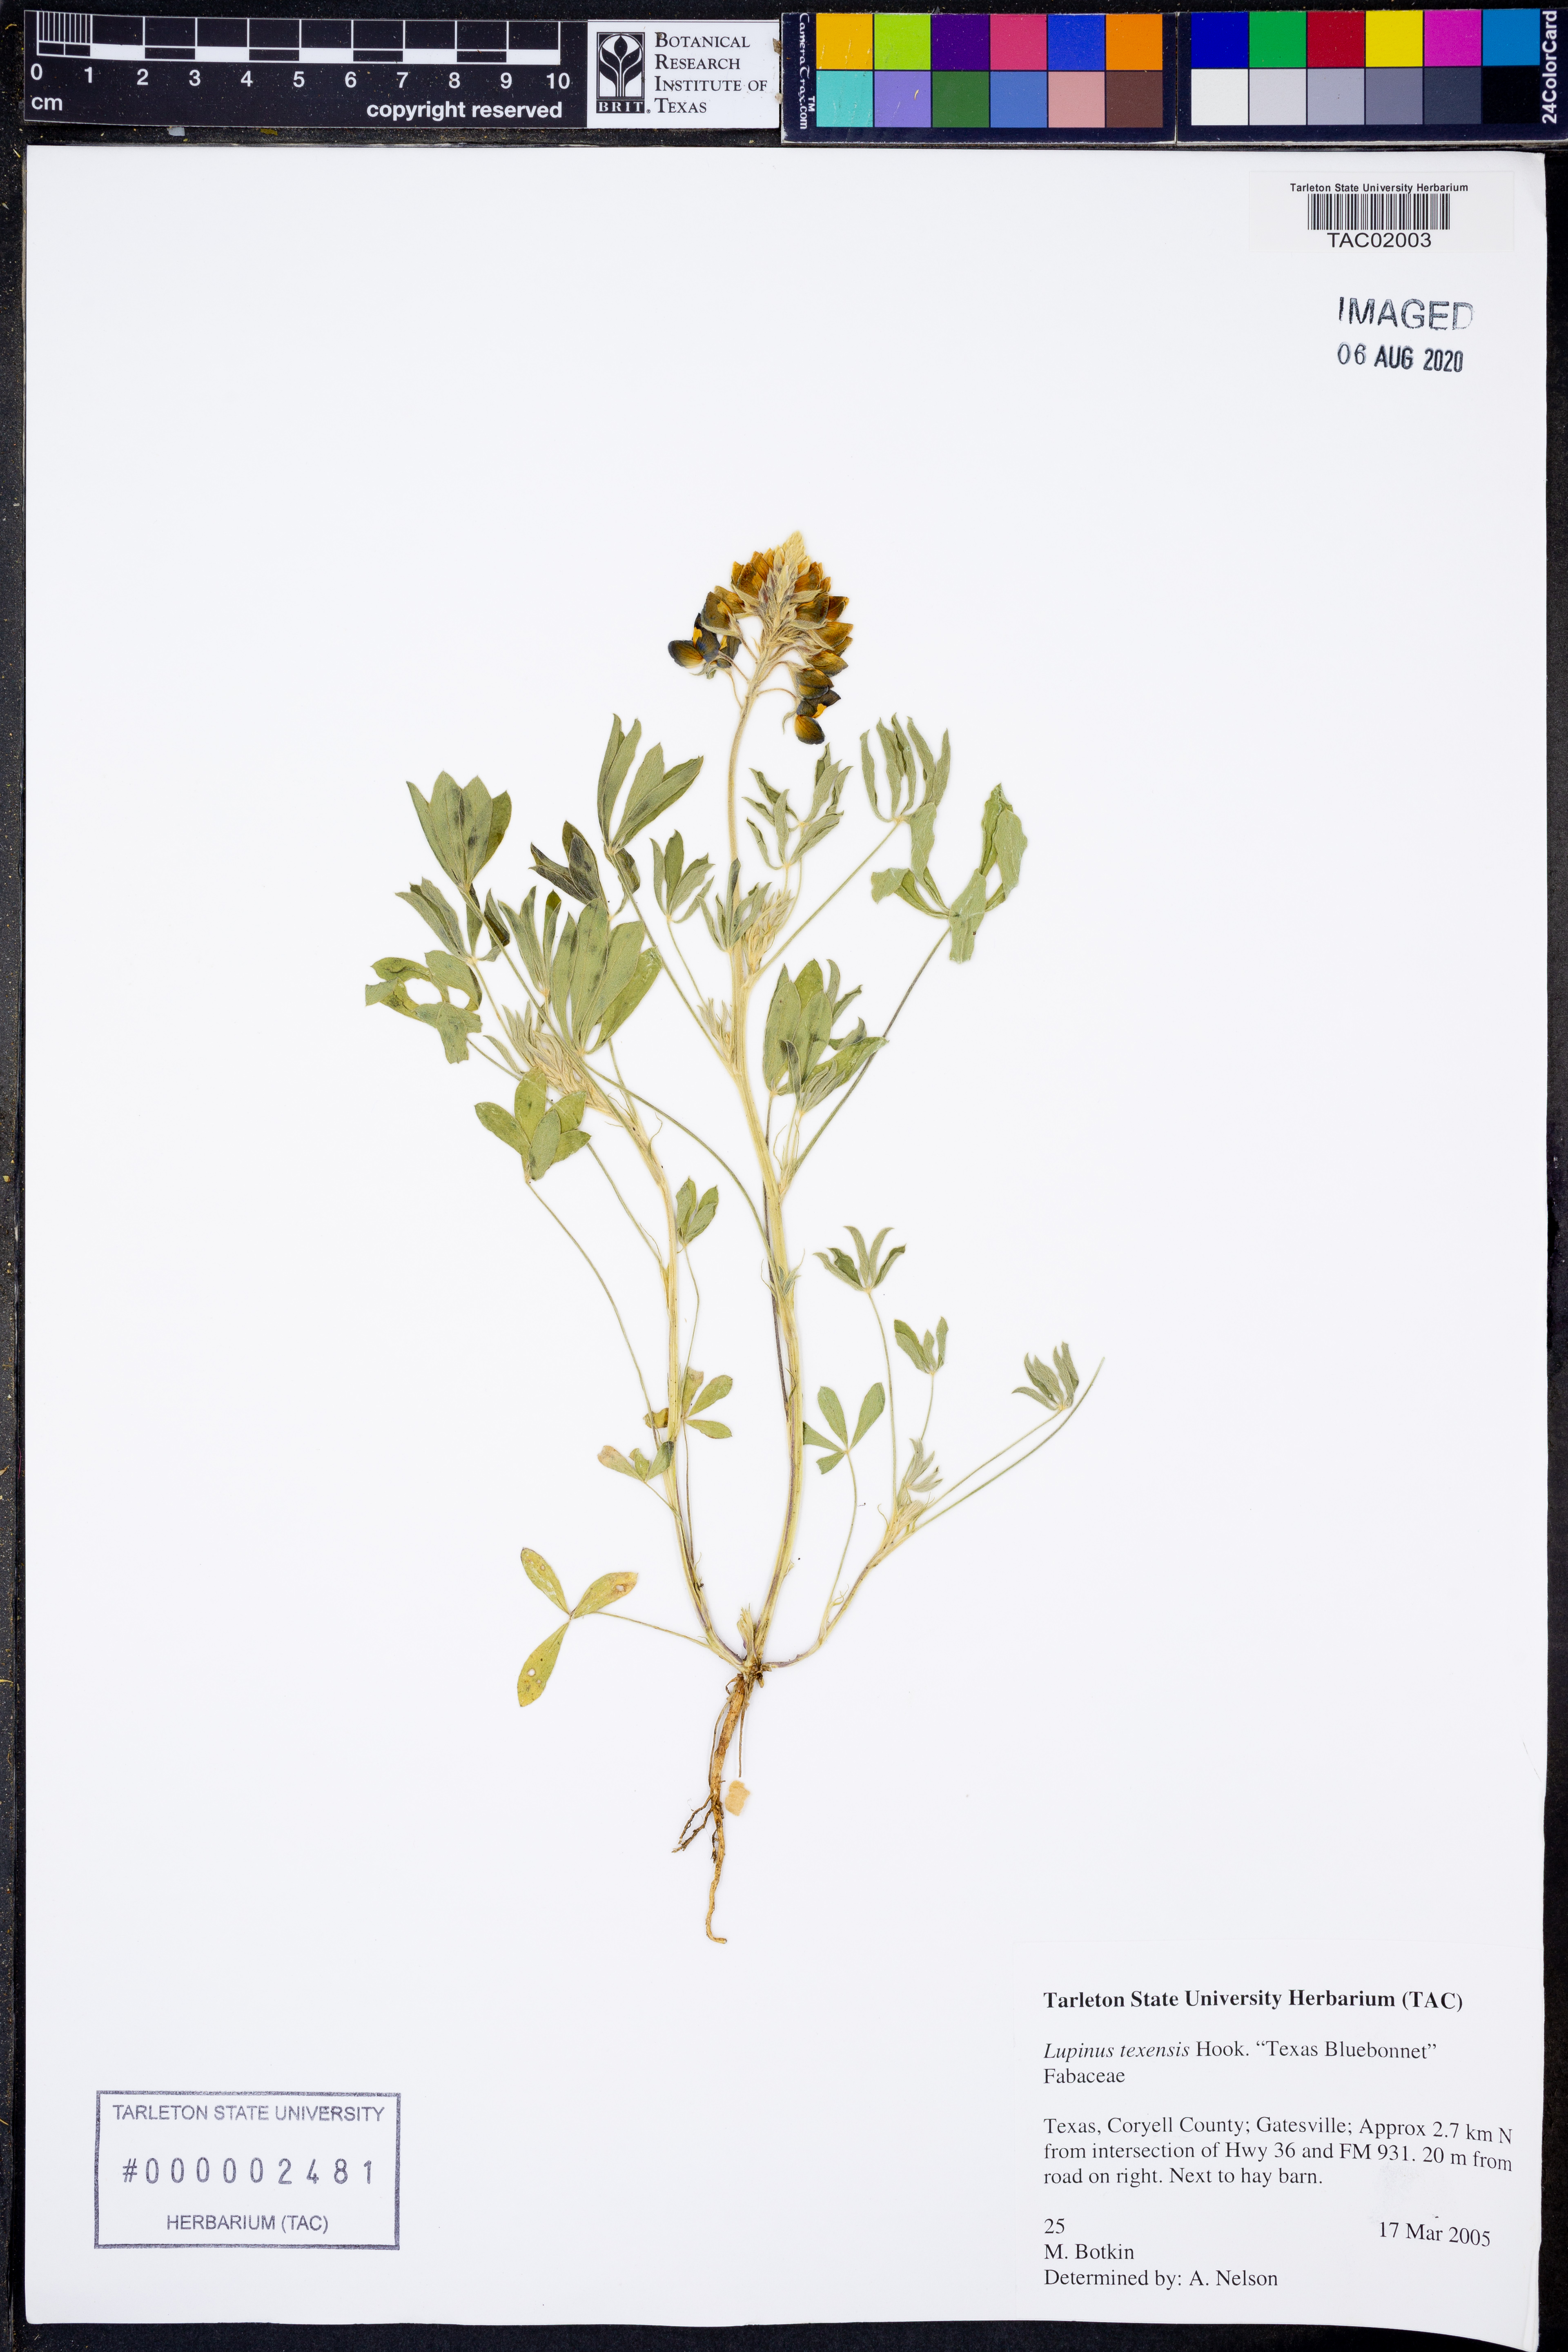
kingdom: Plantae
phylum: Tracheophyta
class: Magnoliopsida
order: Fabales
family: Fabaceae
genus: Lupinus
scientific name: Lupinus texensis
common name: Texas bluebonnet
